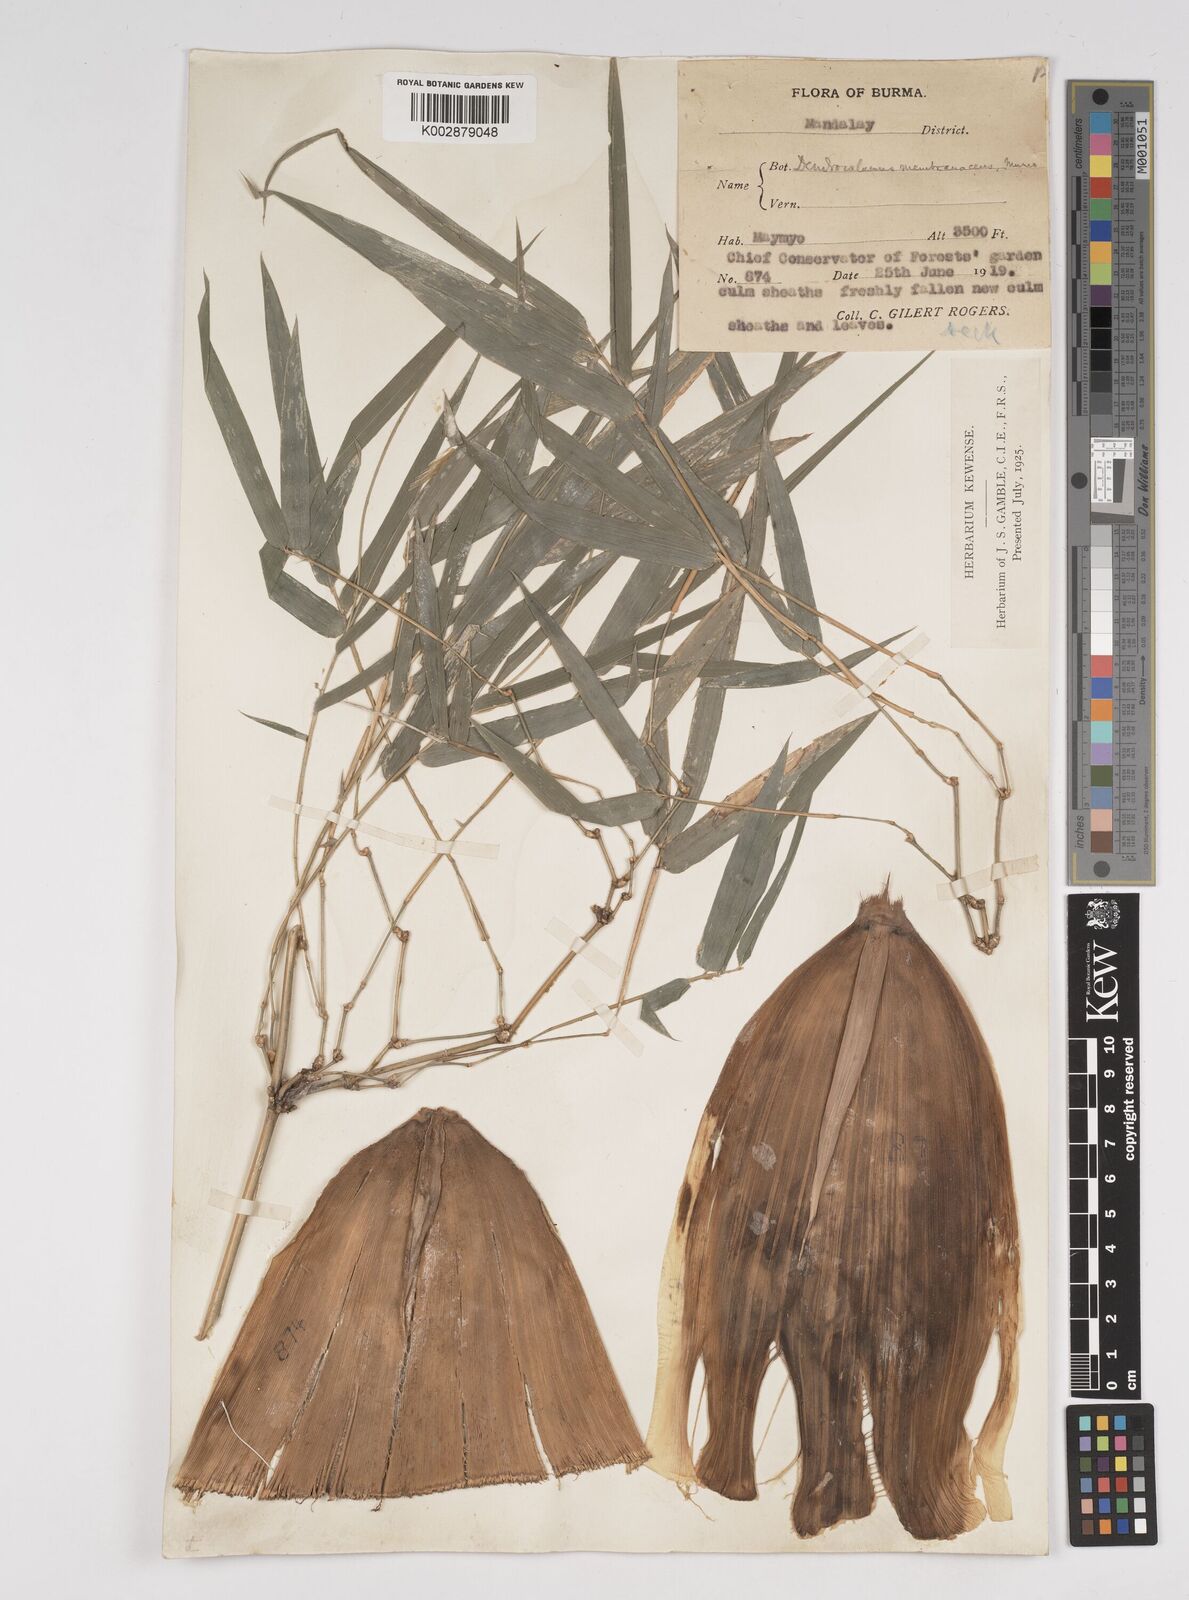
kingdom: Plantae
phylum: Tracheophyta
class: Liliopsida
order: Poales
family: Poaceae
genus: Dendrocalamus
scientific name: Dendrocalamus membranaceus
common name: White bamboo
